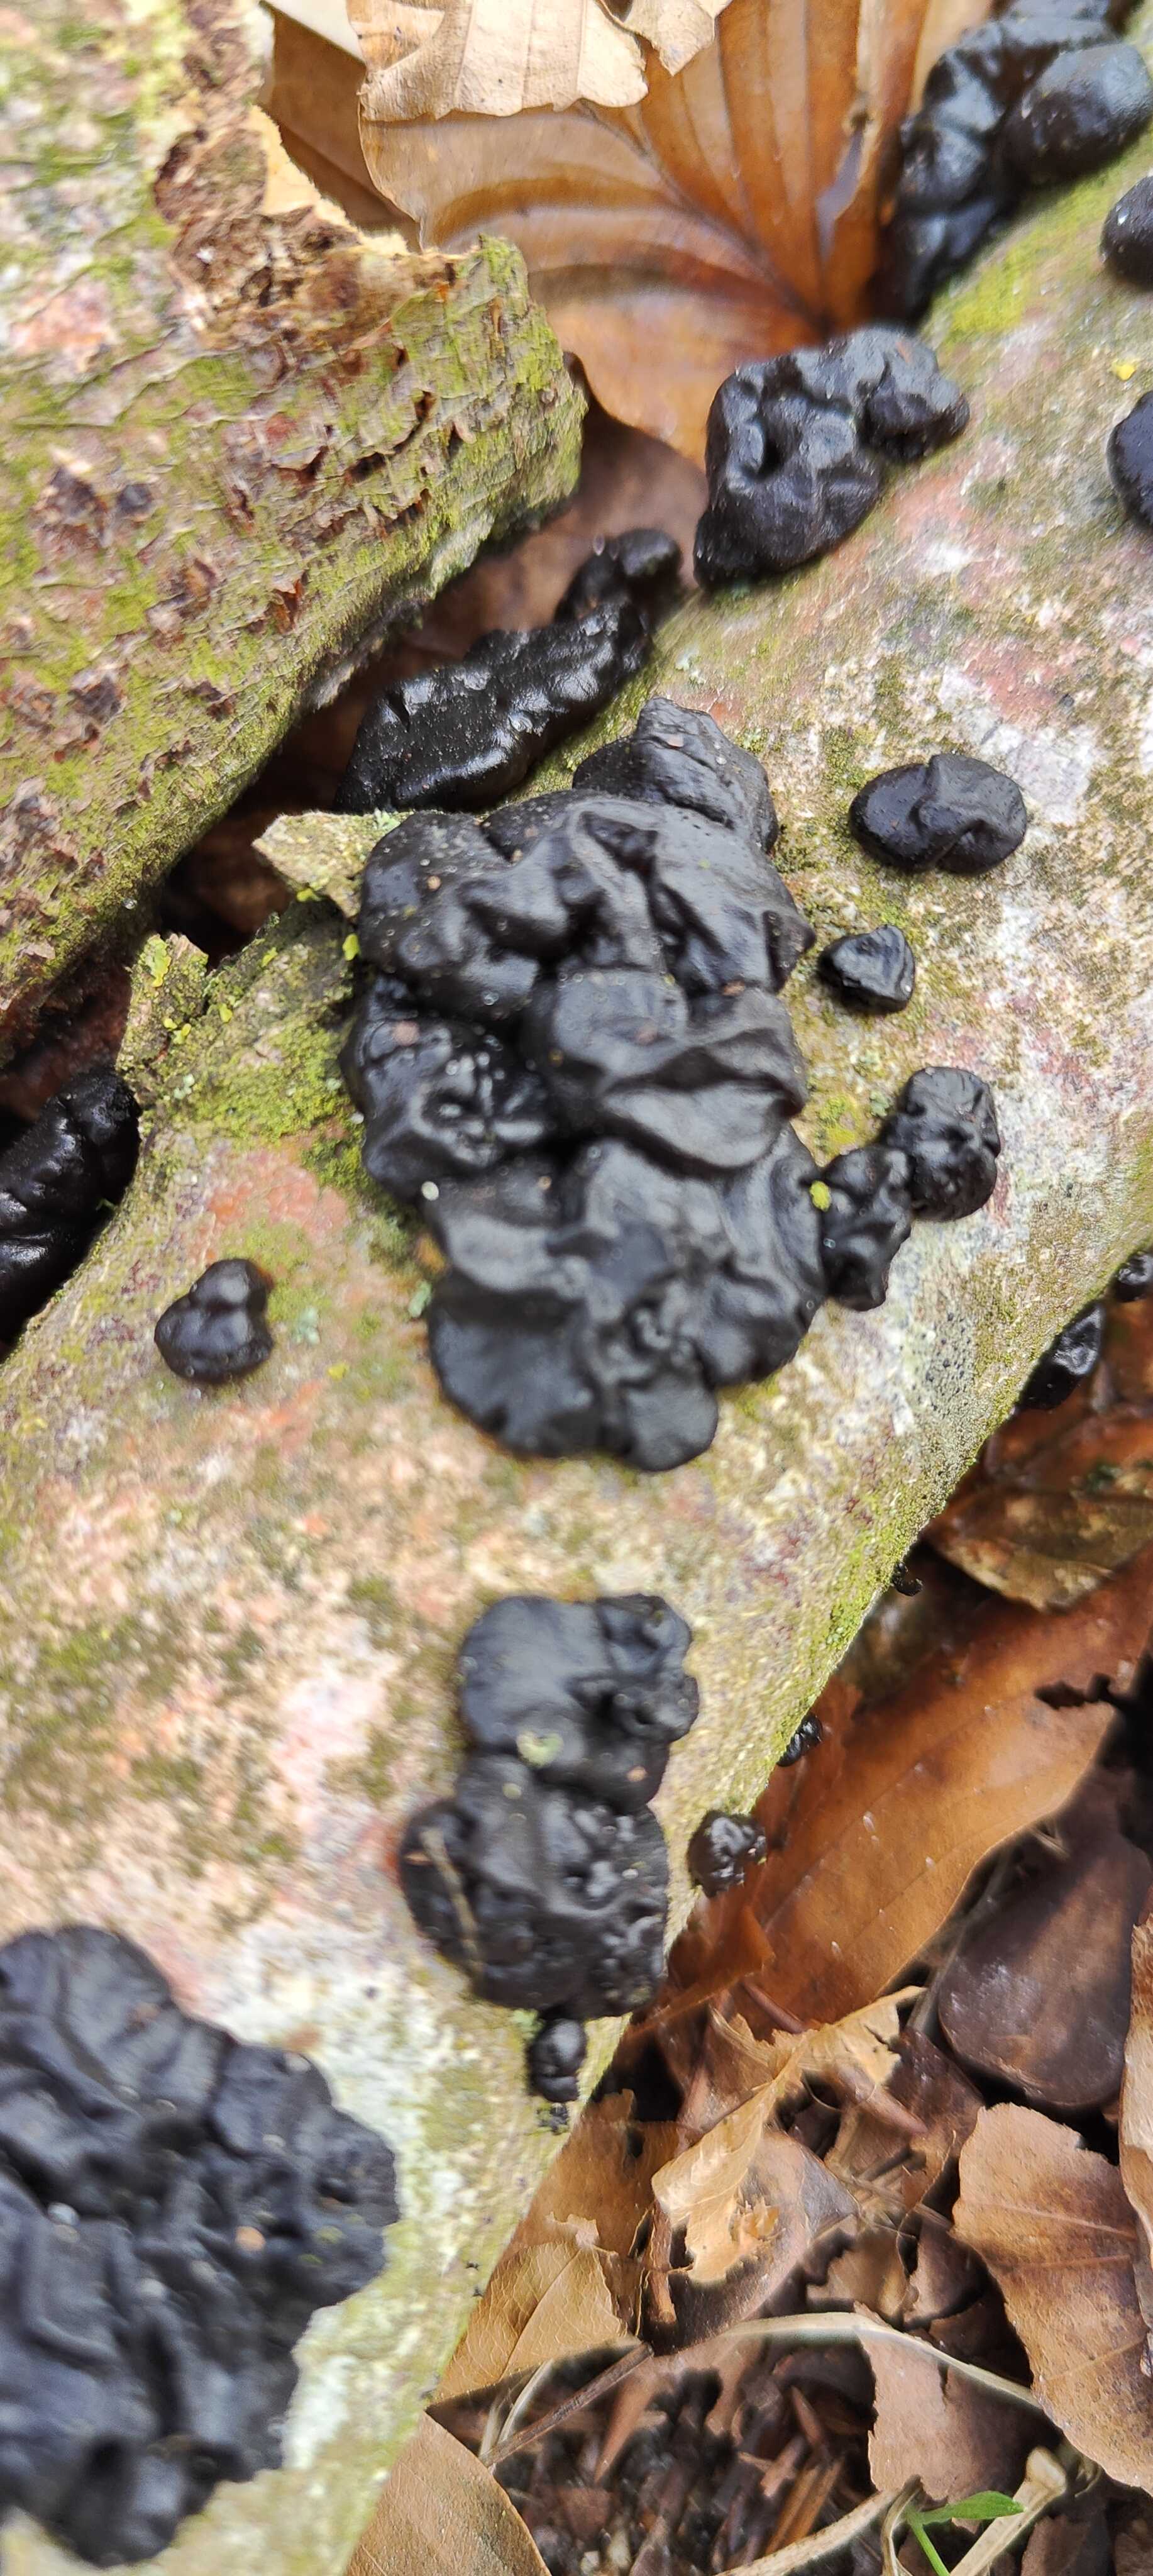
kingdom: Fungi
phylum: Basidiomycota
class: Agaricomycetes
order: Auriculariales
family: Auriculariaceae
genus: Exidia
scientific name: Exidia nigricans
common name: almindelig bævretop
